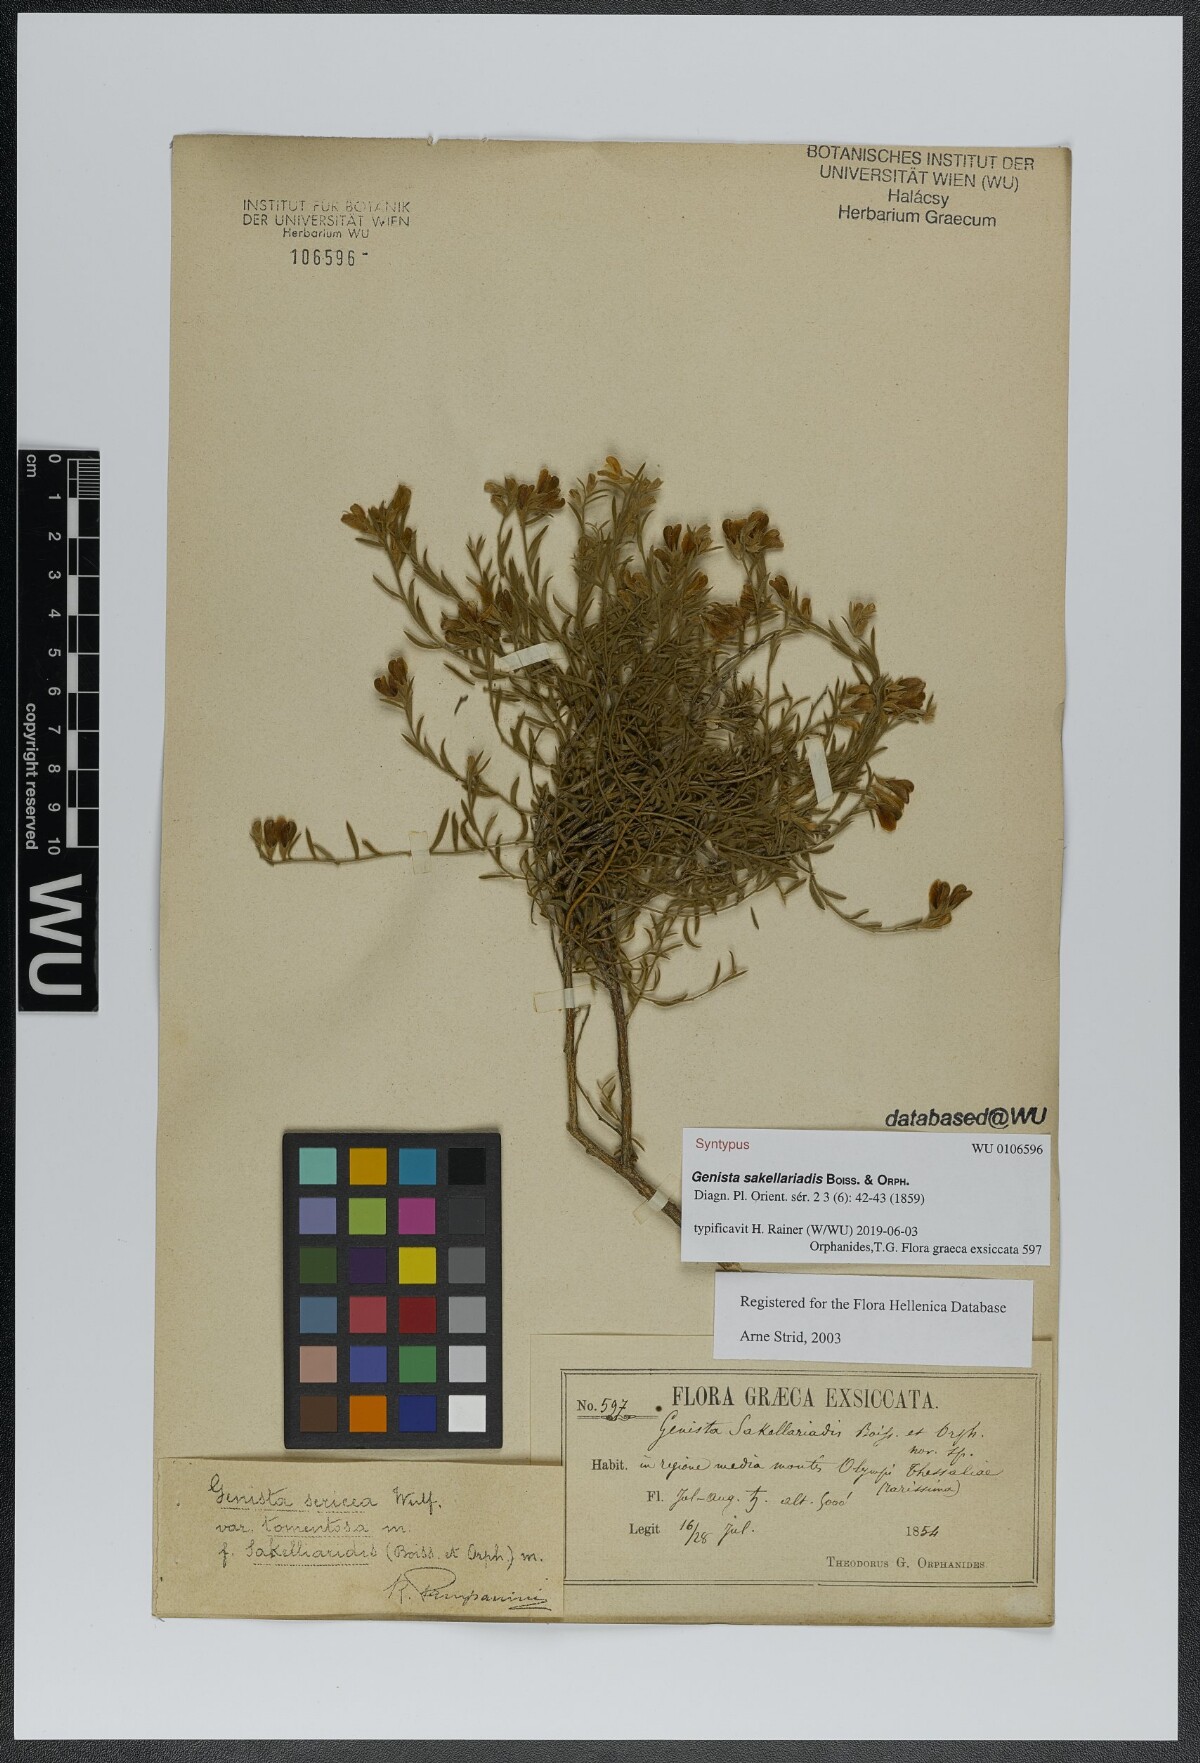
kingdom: Plantae
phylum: Tracheophyta
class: Magnoliopsida
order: Fabales
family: Fabaceae
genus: Genista
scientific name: Genista sakellariadis
